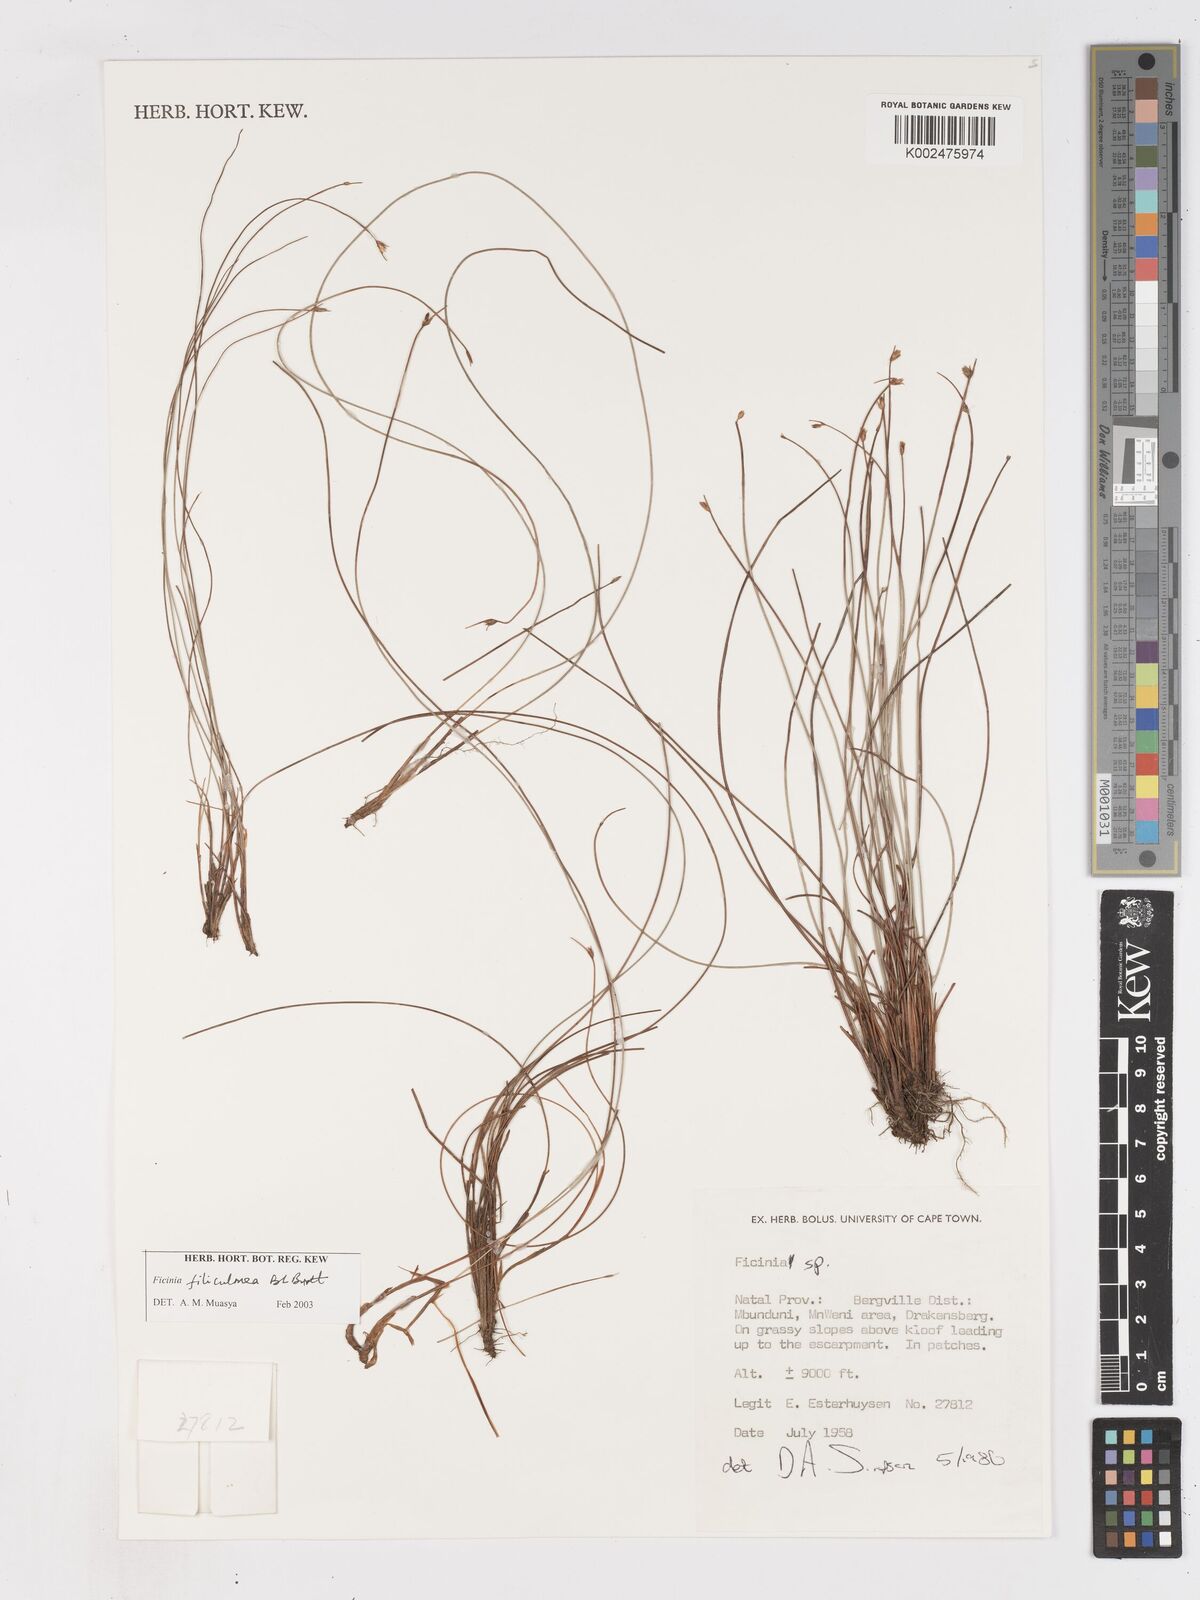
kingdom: Plantae
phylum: Tracheophyta
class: Liliopsida
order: Poales
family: Cyperaceae
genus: Ficinia
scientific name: Ficinia filiculmea
